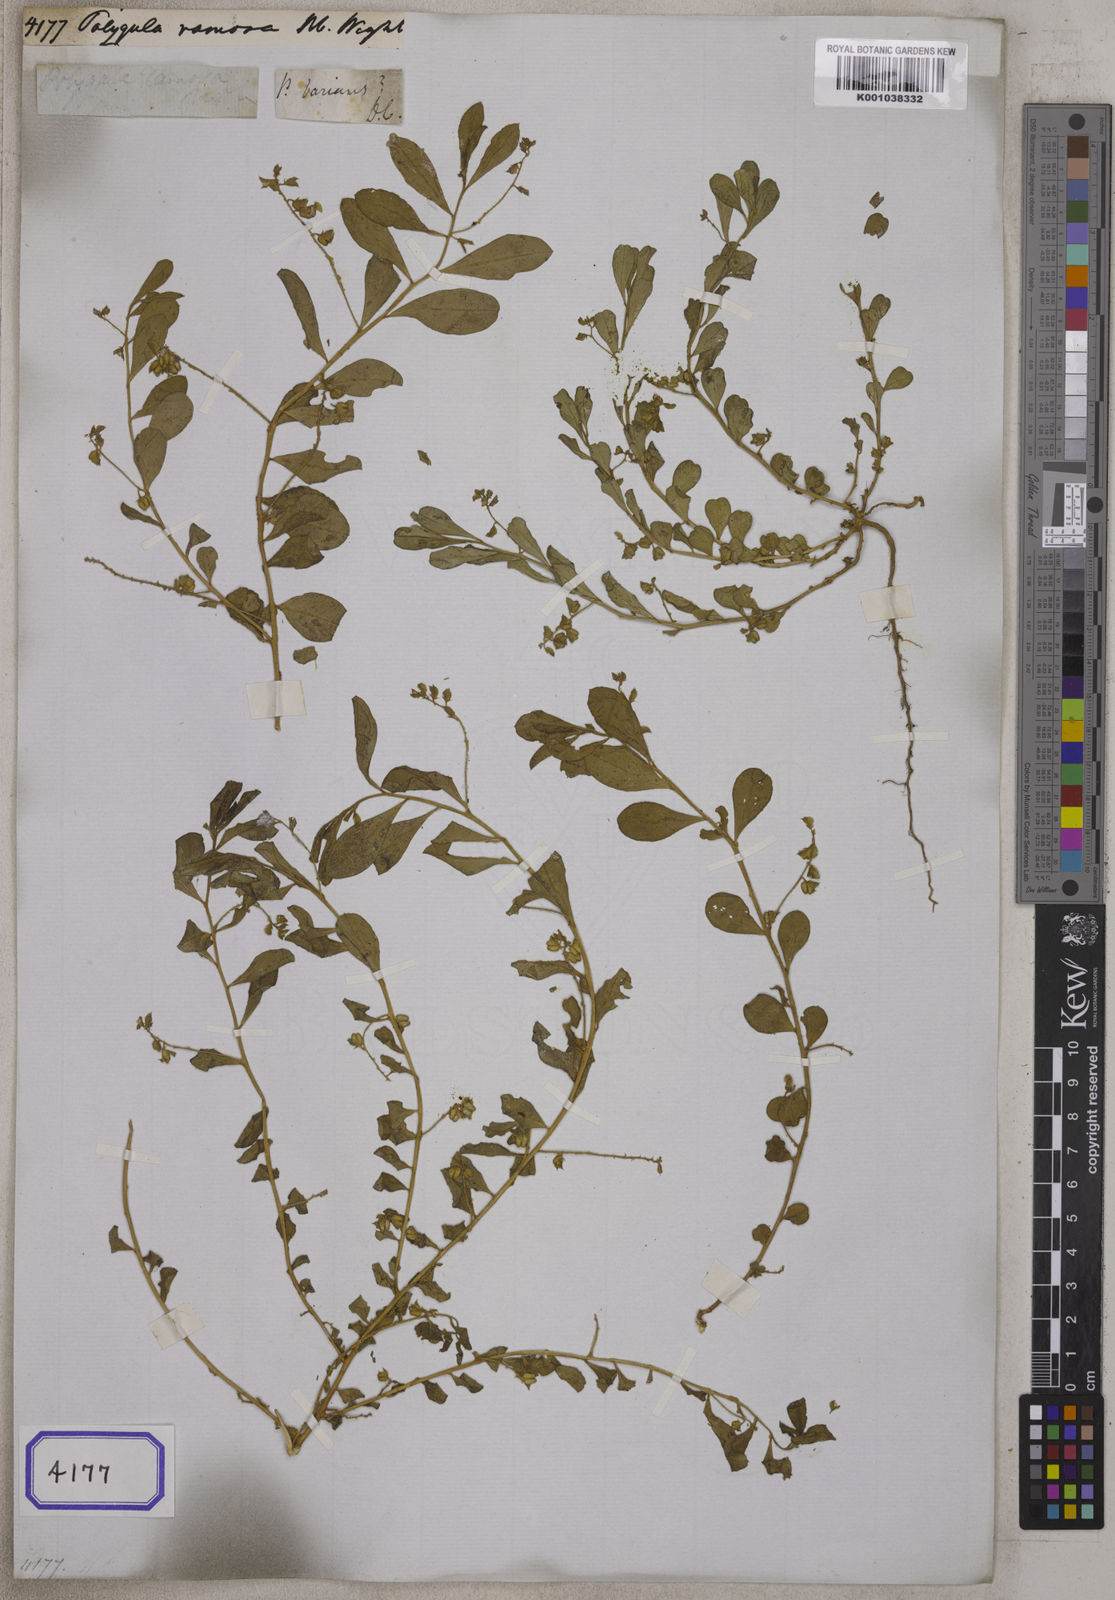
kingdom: Plantae
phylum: Tracheophyta
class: Magnoliopsida
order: Fabales
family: Polygalaceae
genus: Polygala
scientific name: Polygala glomerata
